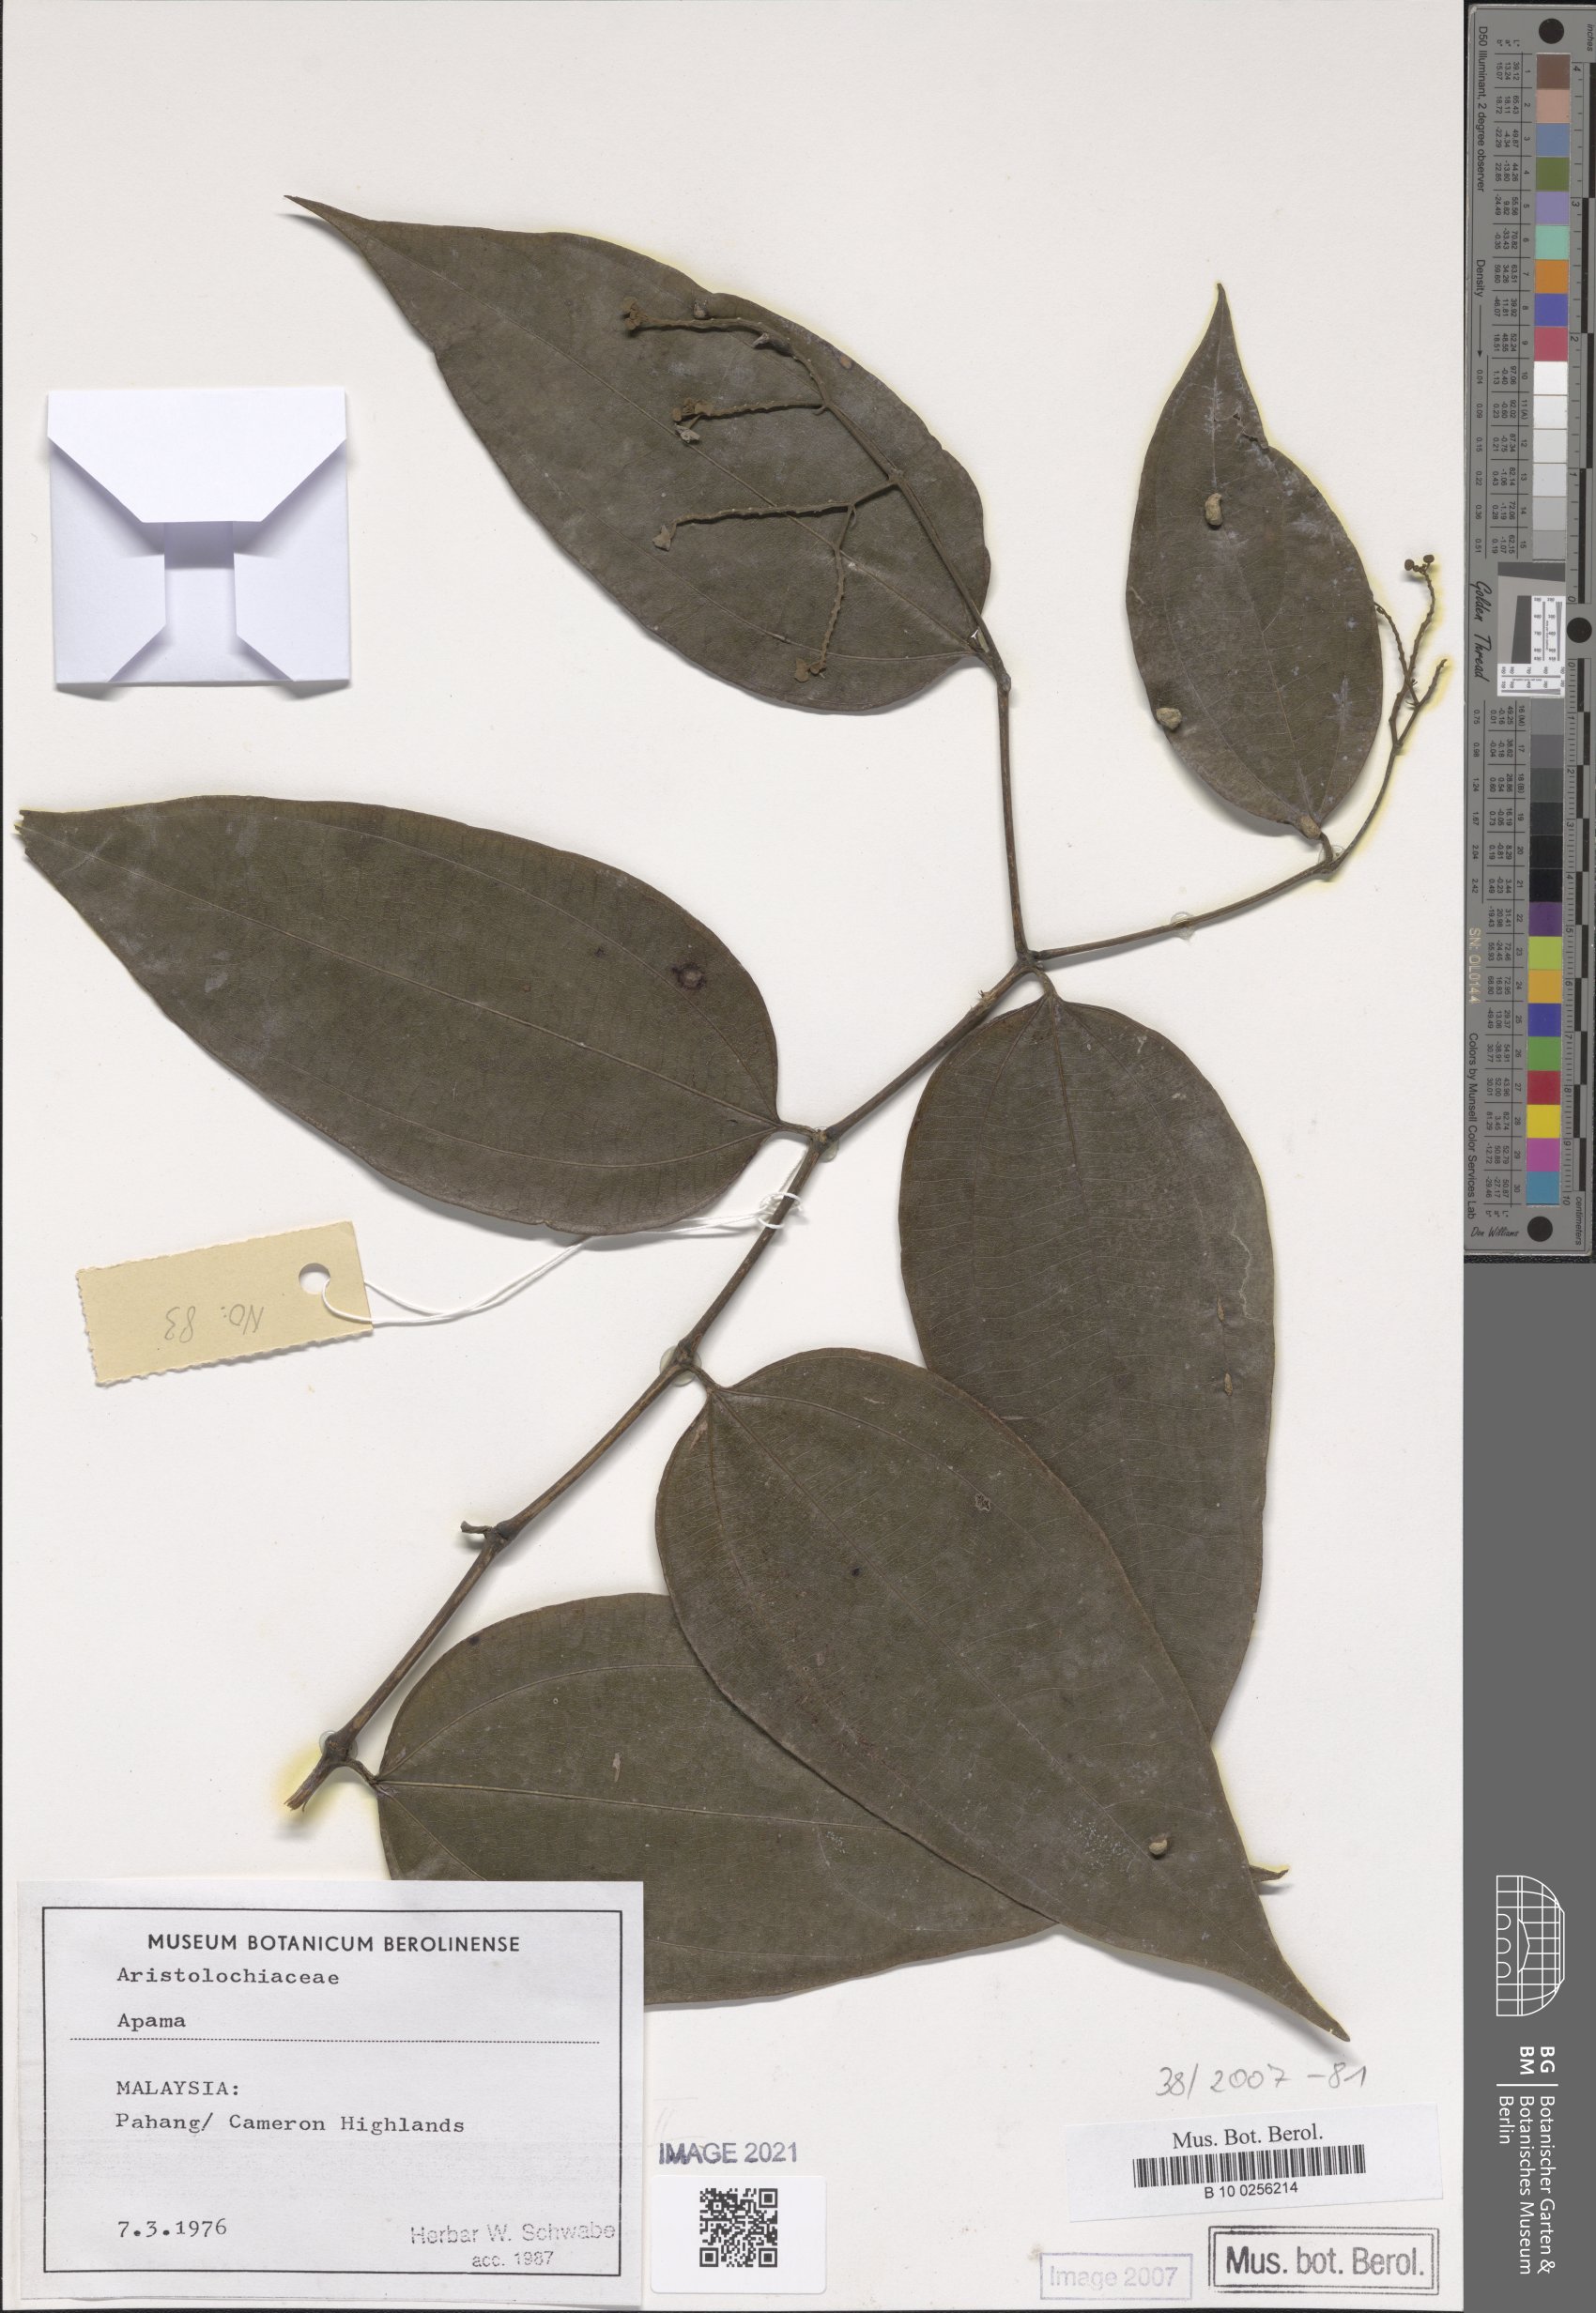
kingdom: Plantae
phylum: Tracheophyta
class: Magnoliopsida
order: Piperales
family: Aristolochiaceae
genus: Thottea
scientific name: Thottea
